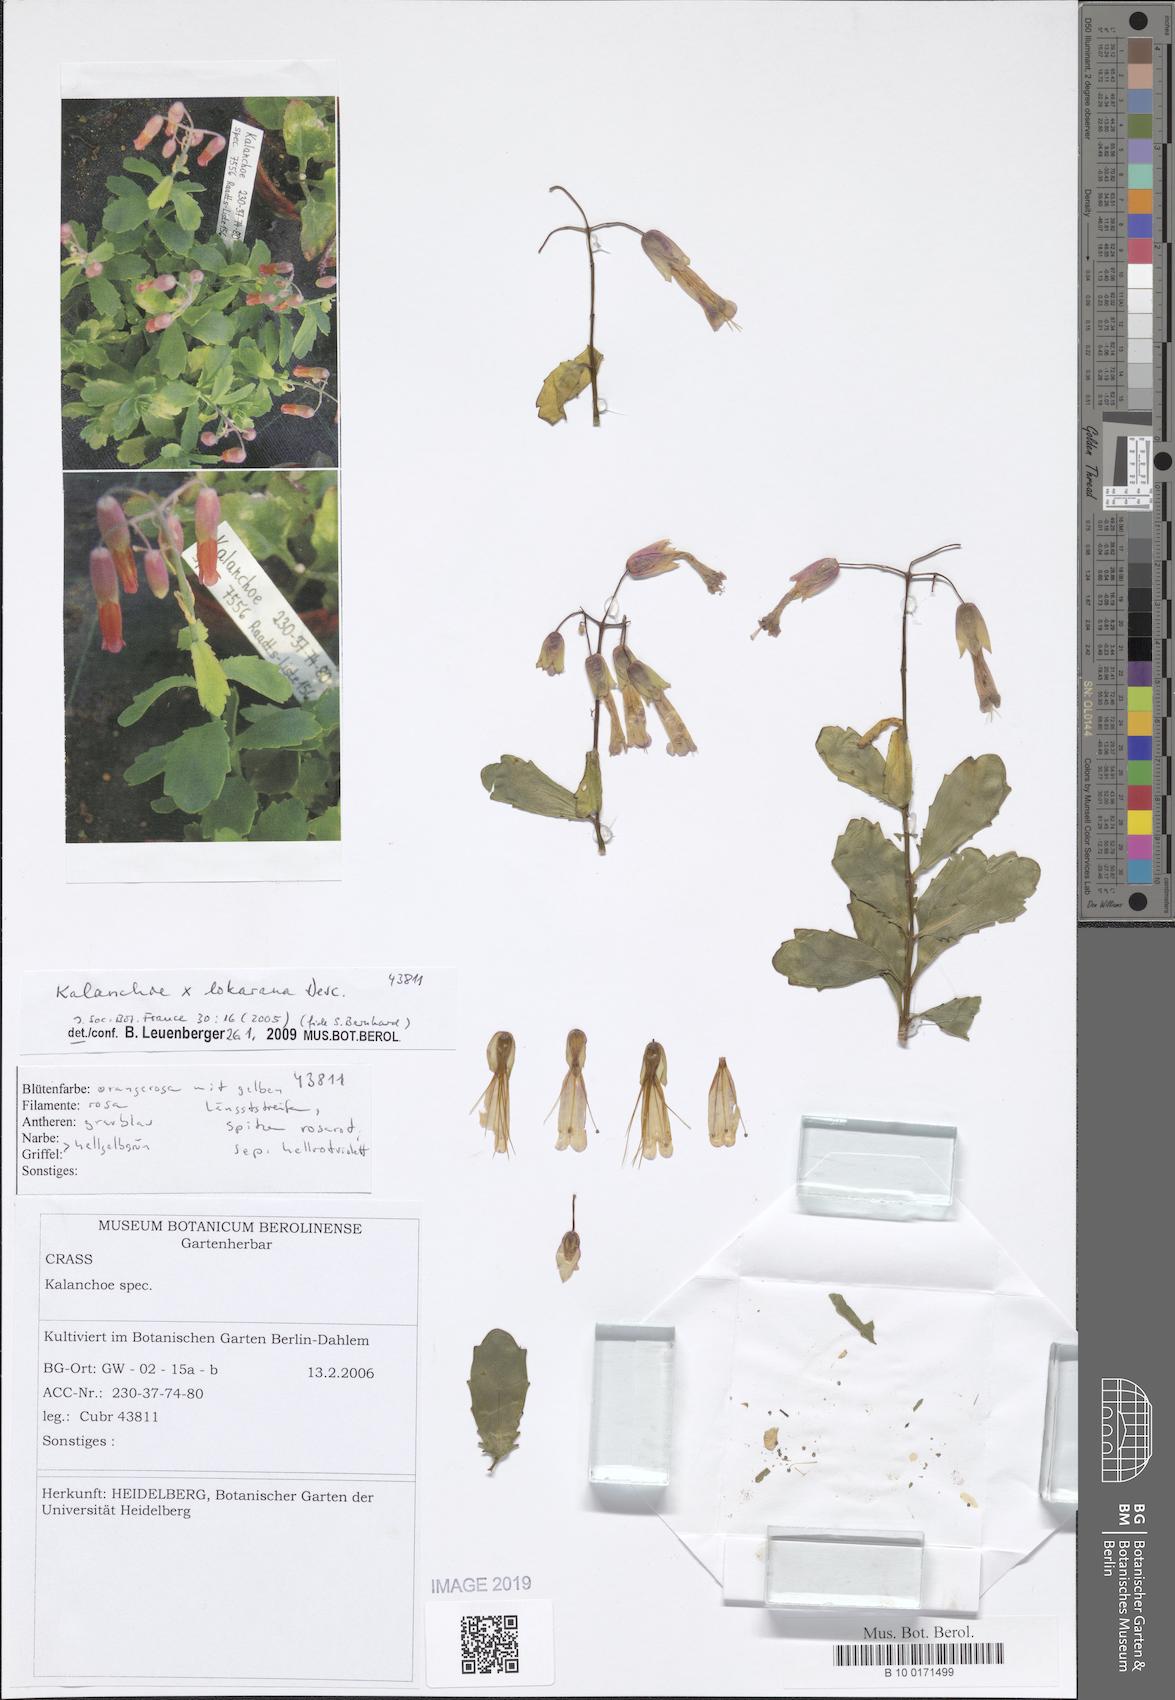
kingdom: Plantae
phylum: Tracheophyta
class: Magnoliopsida
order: Saxifragales
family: Crassulaceae
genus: Kalanchoe
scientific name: Kalanchoe lokarana
